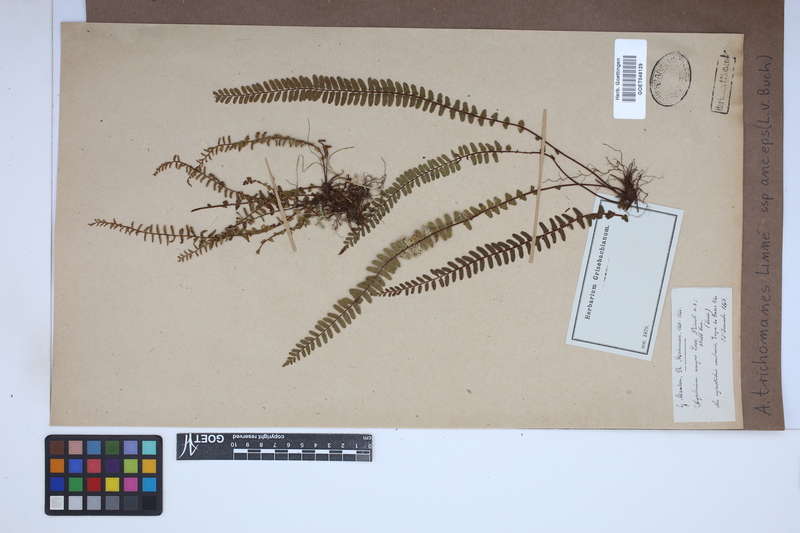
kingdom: Plantae
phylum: Tracheophyta
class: Polypodiopsida
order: Polypodiales
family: Aspleniaceae
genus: Asplenium
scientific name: Asplenium resiliens
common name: Blackstem spleenwort
